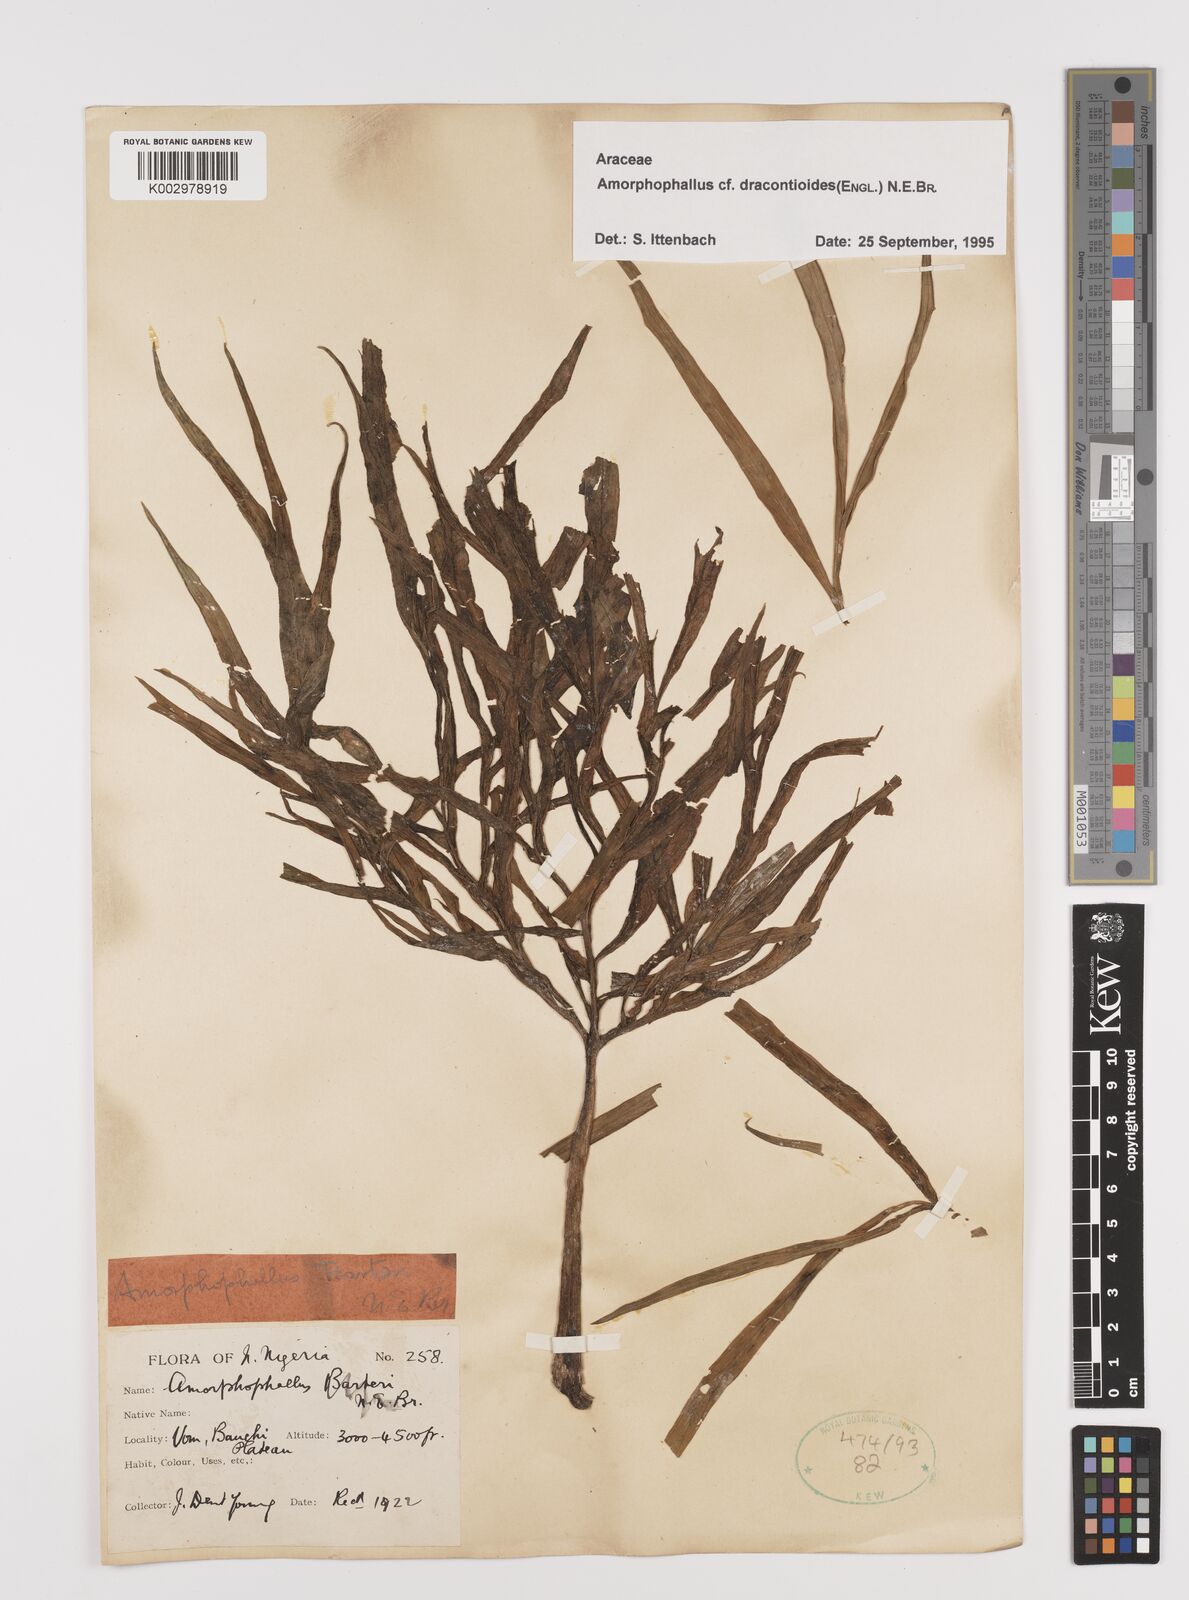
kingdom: Plantae
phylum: Tracheophyta
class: Liliopsida
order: Alismatales
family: Araceae
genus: Amorphophallus
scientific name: Amorphophallus dracontioides
